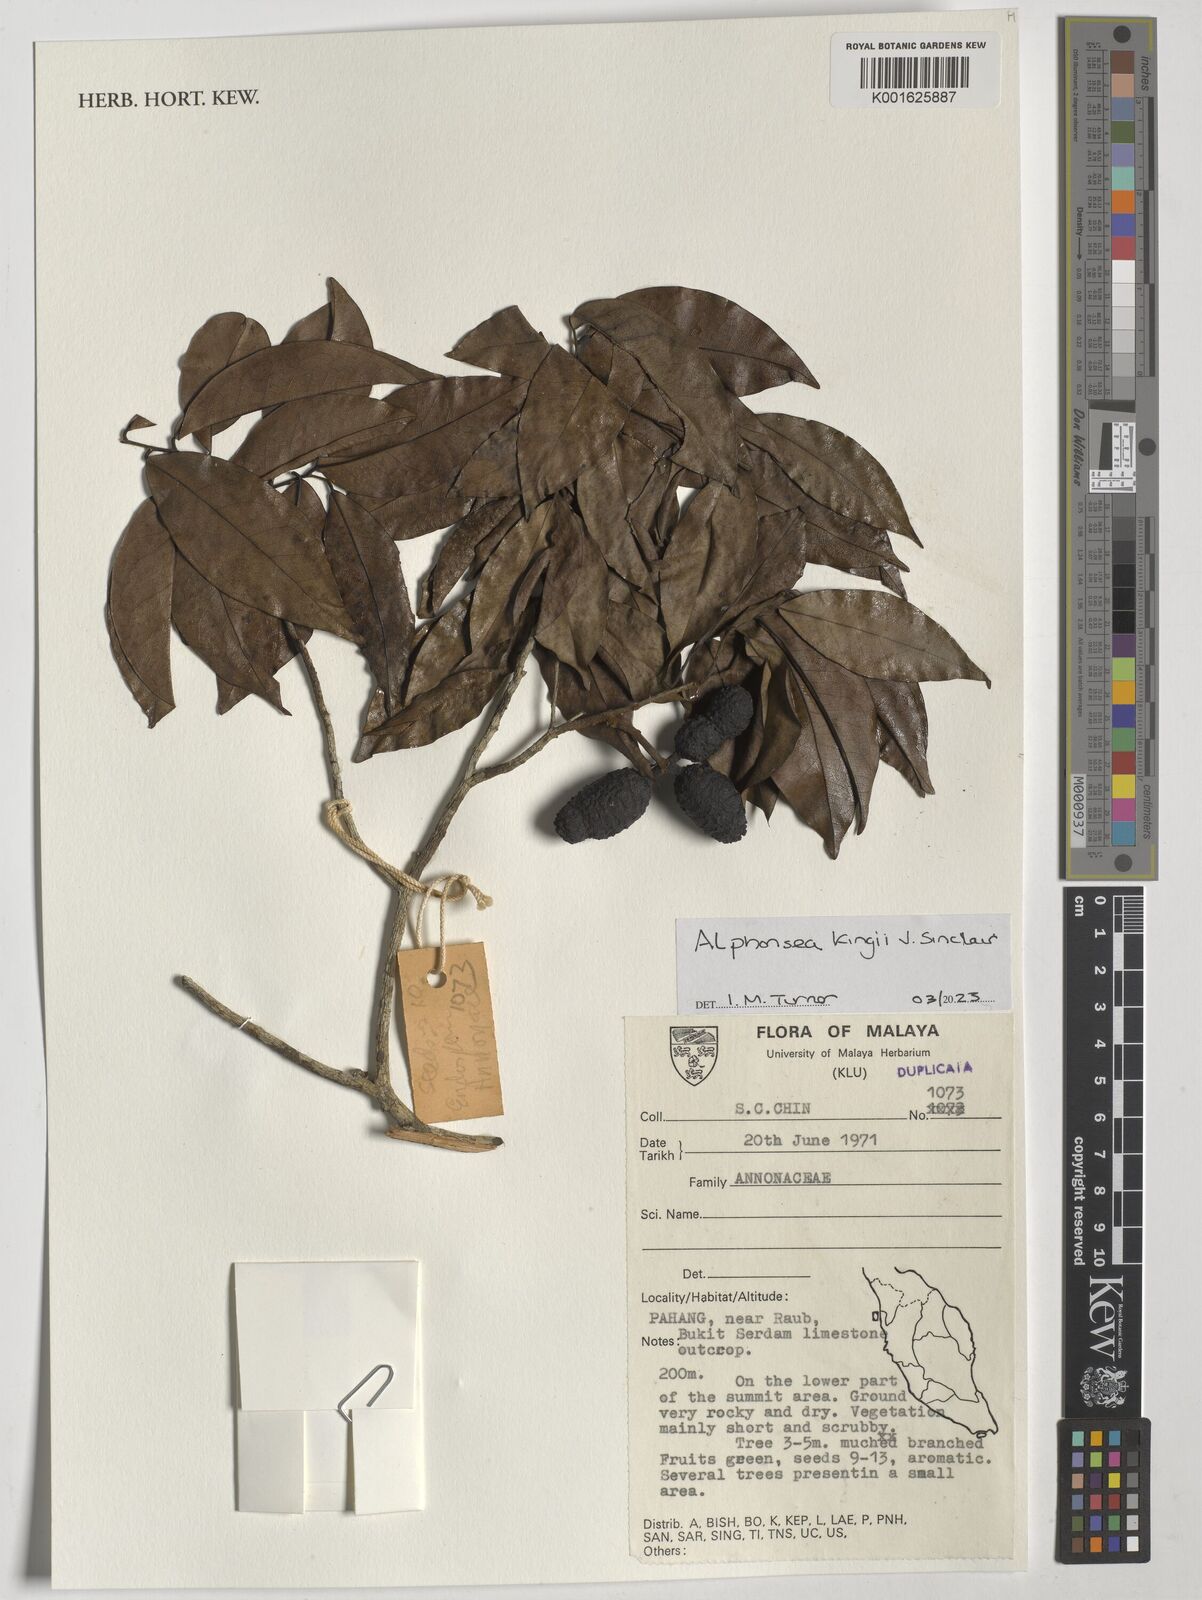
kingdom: Plantae
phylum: Tracheophyta
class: Magnoliopsida
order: Magnoliales
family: Annonaceae
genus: Alphonsea
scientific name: Alphonsea kingii
